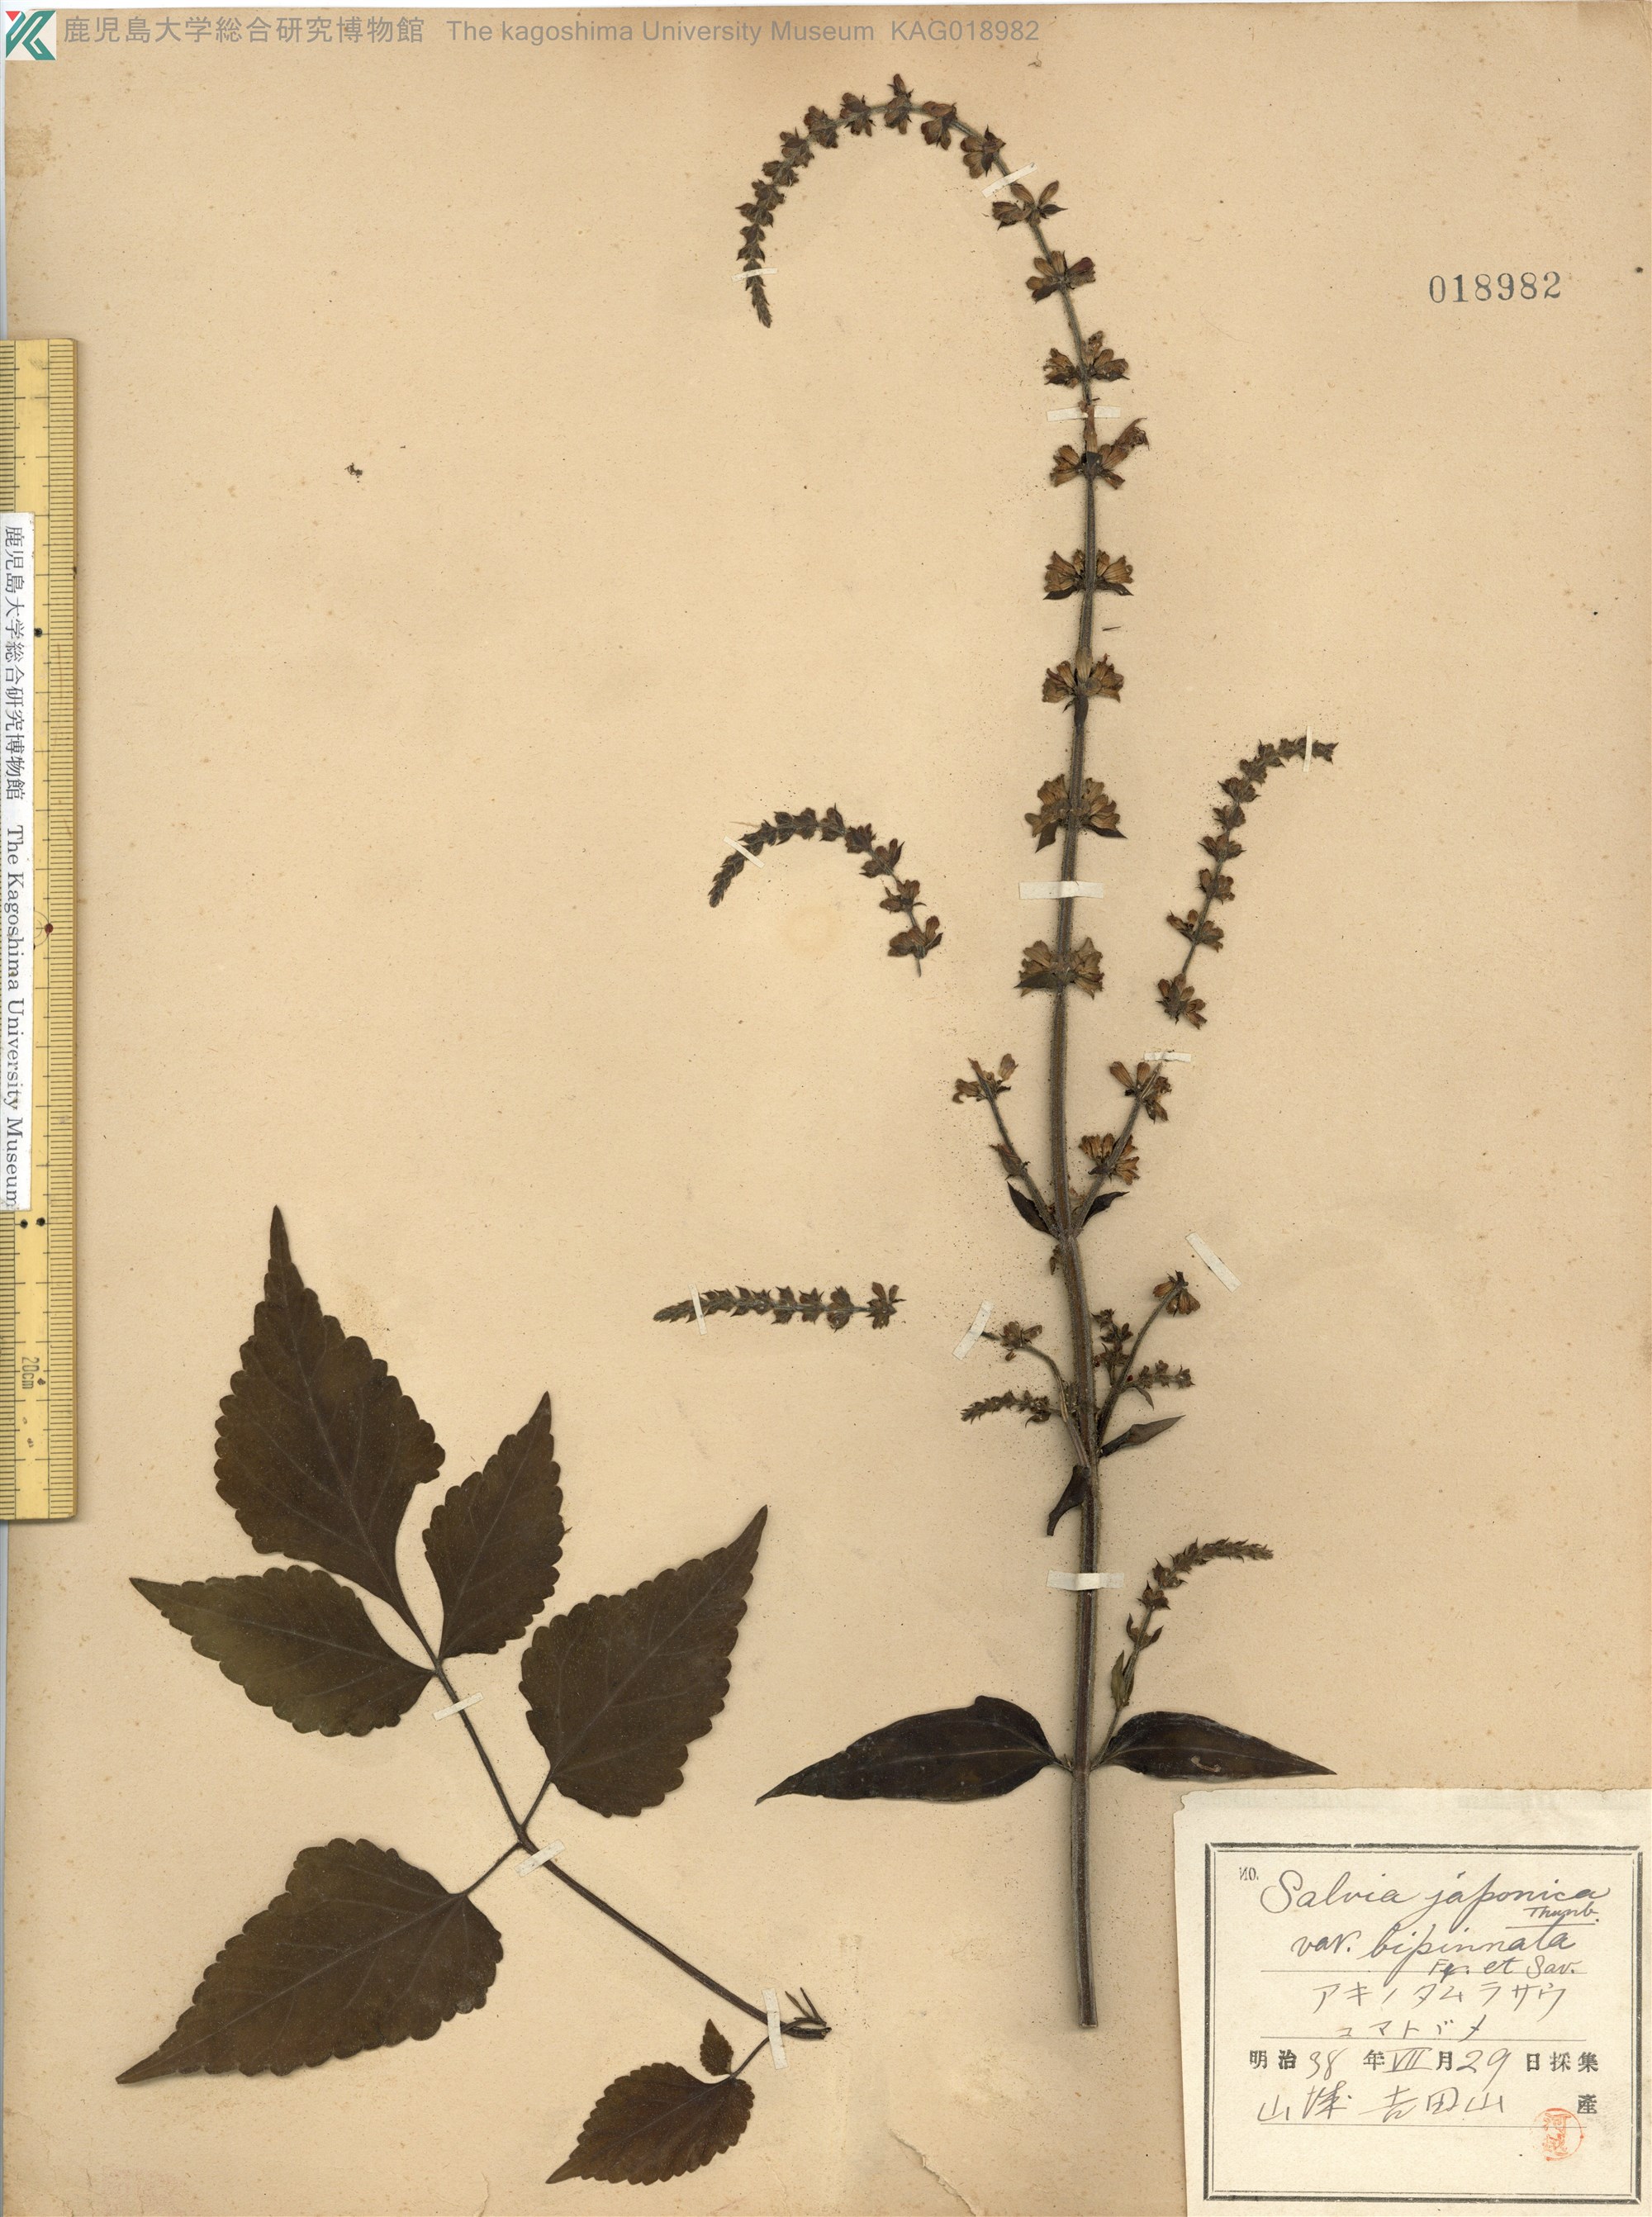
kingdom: Plantae
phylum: Tracheophyta
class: Magnoliopsida
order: Lamiales
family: Lamiaceae
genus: Salvia
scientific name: Salvia japonica
